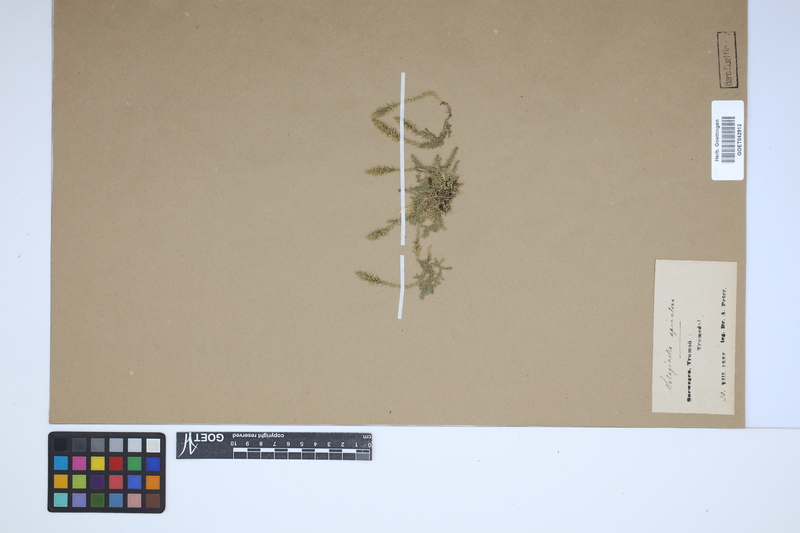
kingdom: Plantae
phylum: Tracheophyta
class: Lycopodiopsida
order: Selaginellales
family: Selaginellaceae
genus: Selaginella
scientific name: Selaginella selaginoides
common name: Prickly mountain-moss
